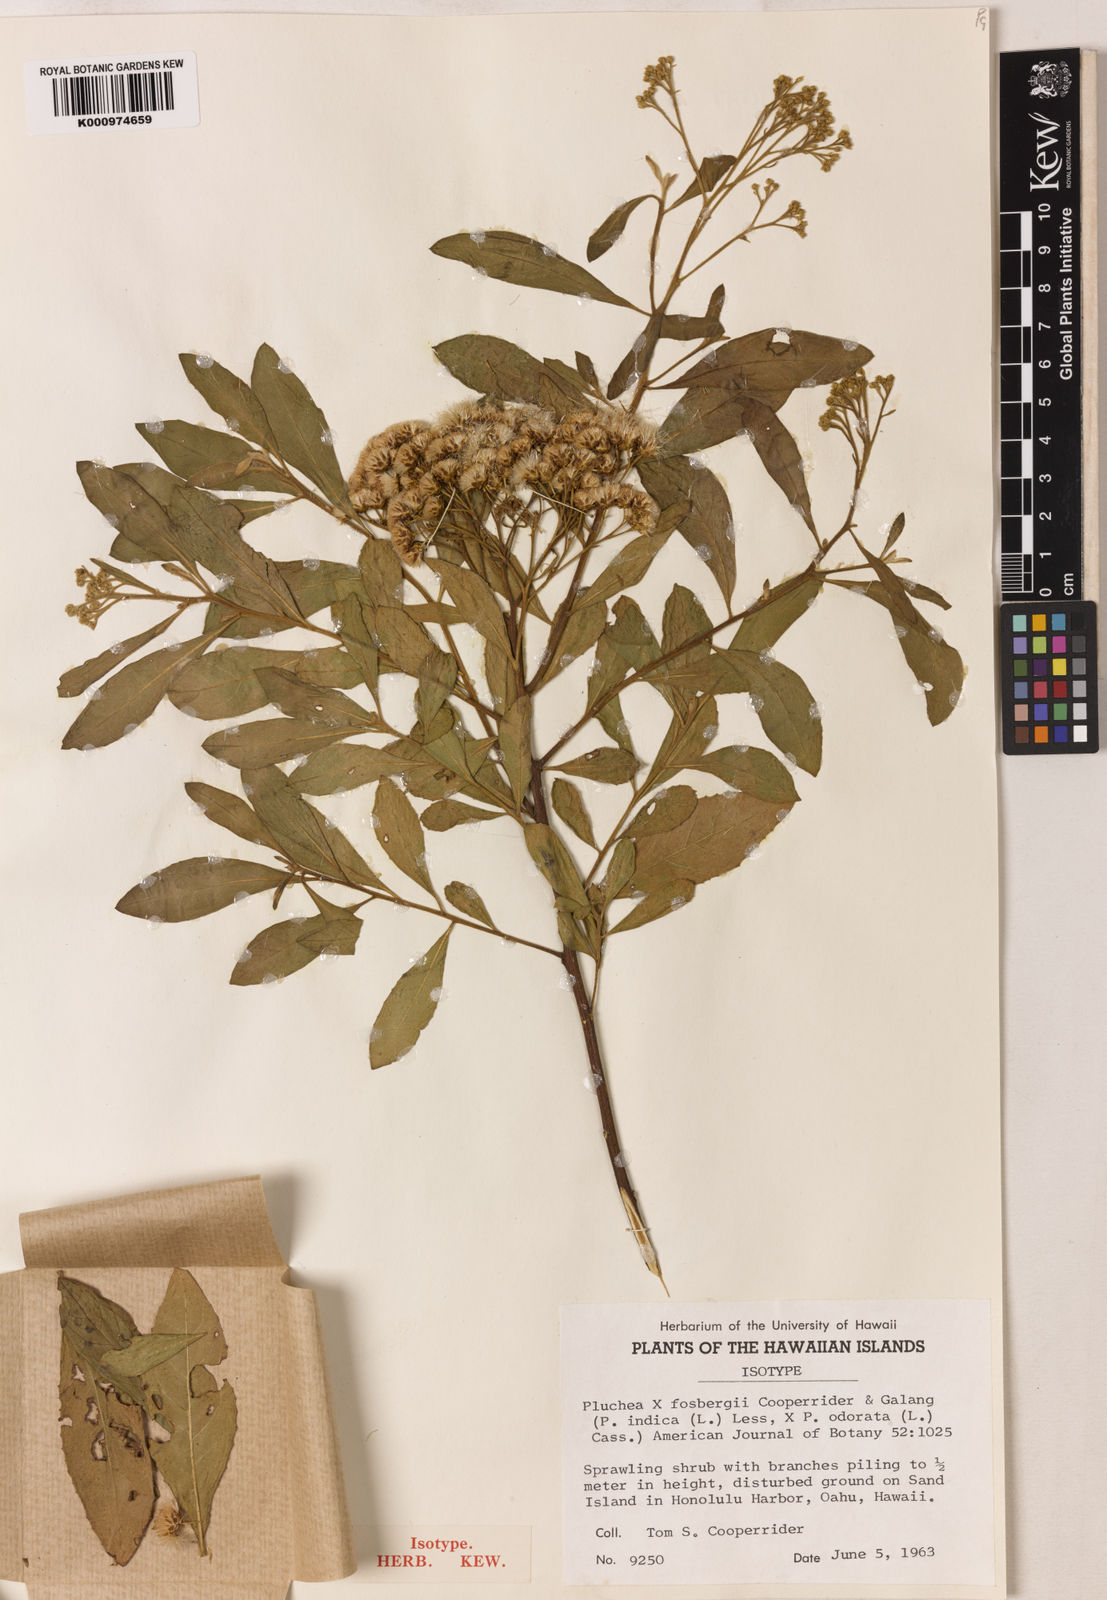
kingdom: Plantae
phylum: Tracheophyta
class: Magnoliopsida
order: Asterales
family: Asteraceae
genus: Pluchea
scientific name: Pluchea fosbergii
